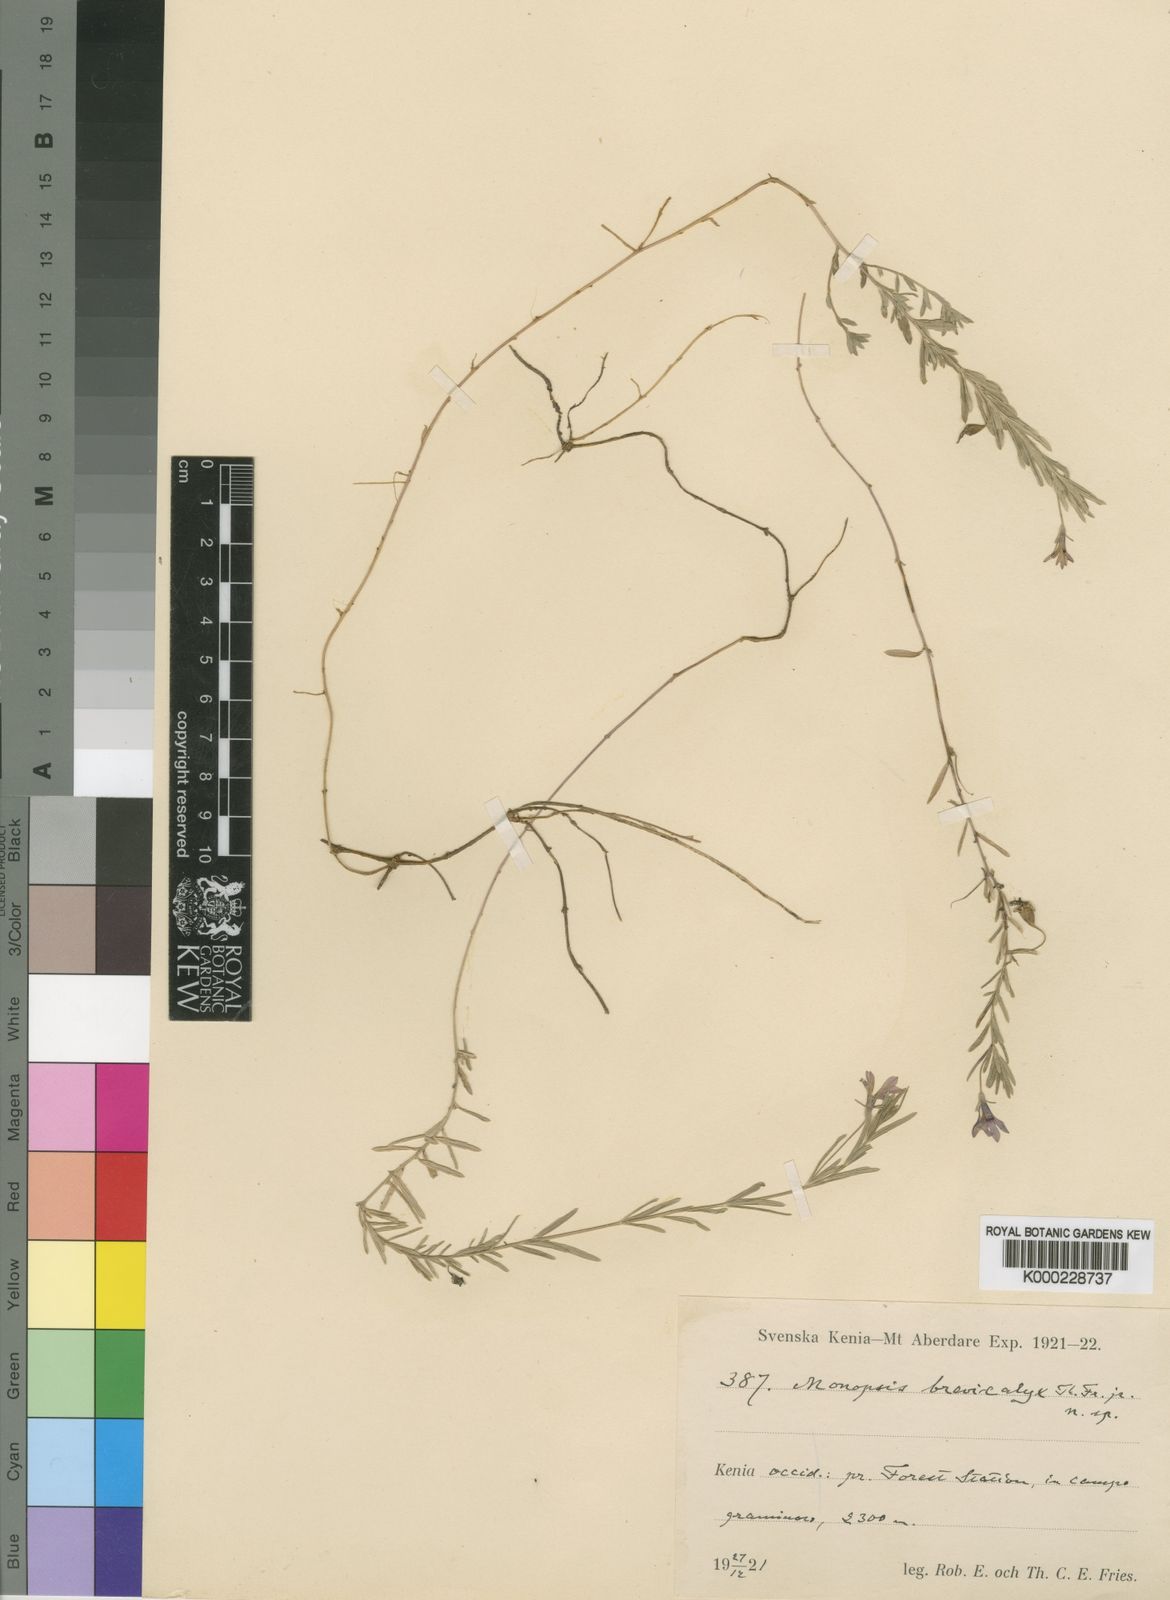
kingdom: Plantae
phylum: Tracheophyta
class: Magnoliopsida
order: Asterales
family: Campanulaceae
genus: Monopsis
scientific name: Monopsis stellarioides
